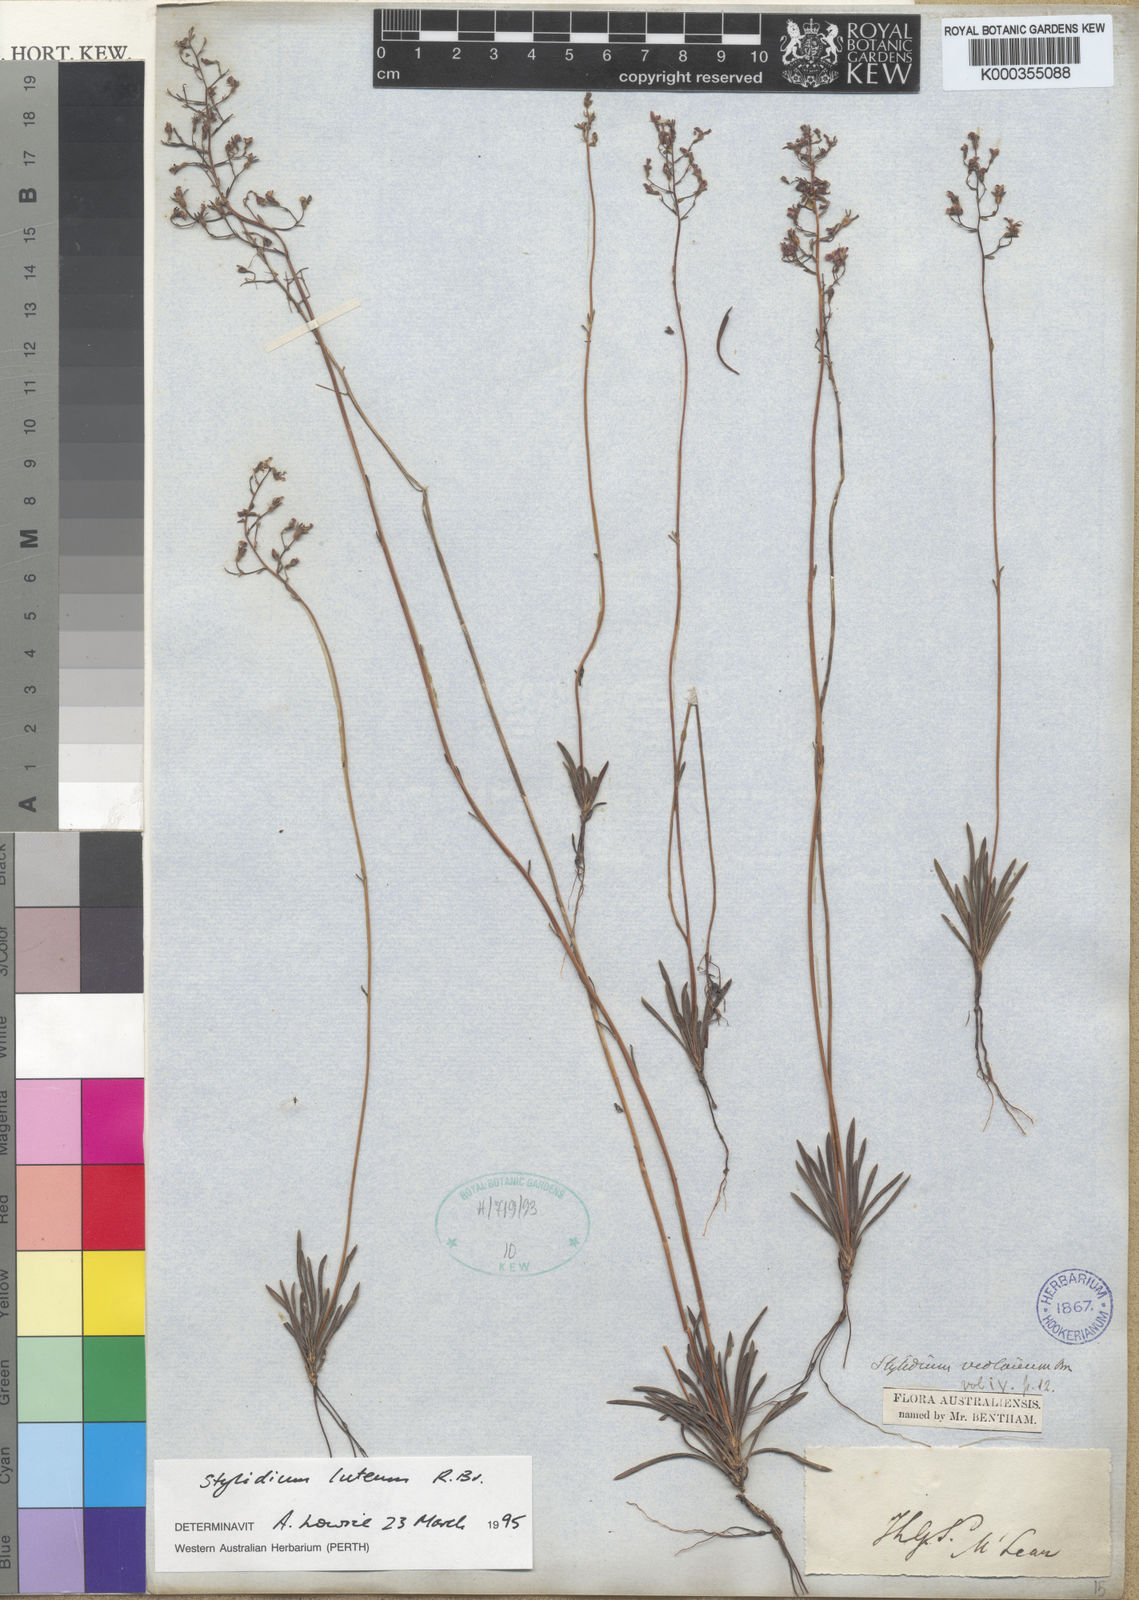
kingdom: Plantae
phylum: Tracheophyta
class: Magnoliopsida
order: Asterales
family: Stylidiaceae
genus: Stylidium
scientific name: Stylidium luteum
